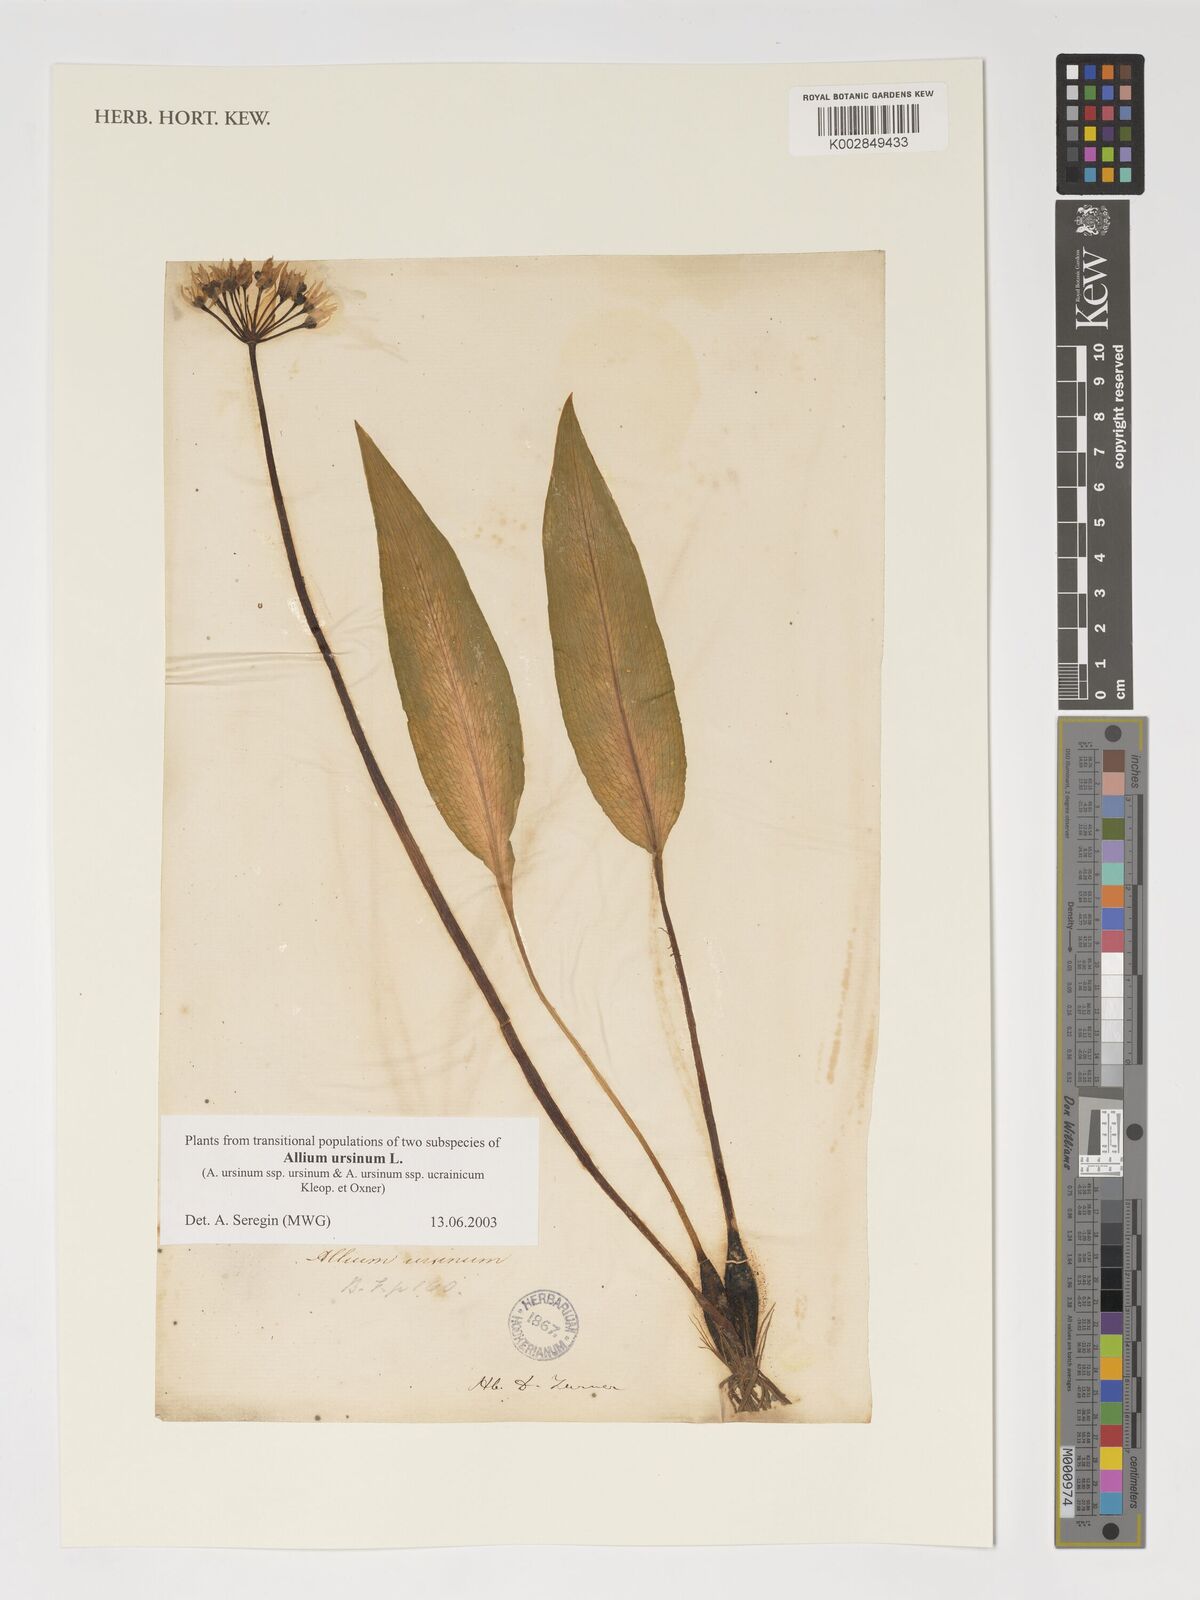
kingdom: Plantae
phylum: Tracheophyta
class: Liliopsida
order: Asparagales
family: Amaryllidaceae
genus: Allium
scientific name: Allium ursinum
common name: Ramsons
